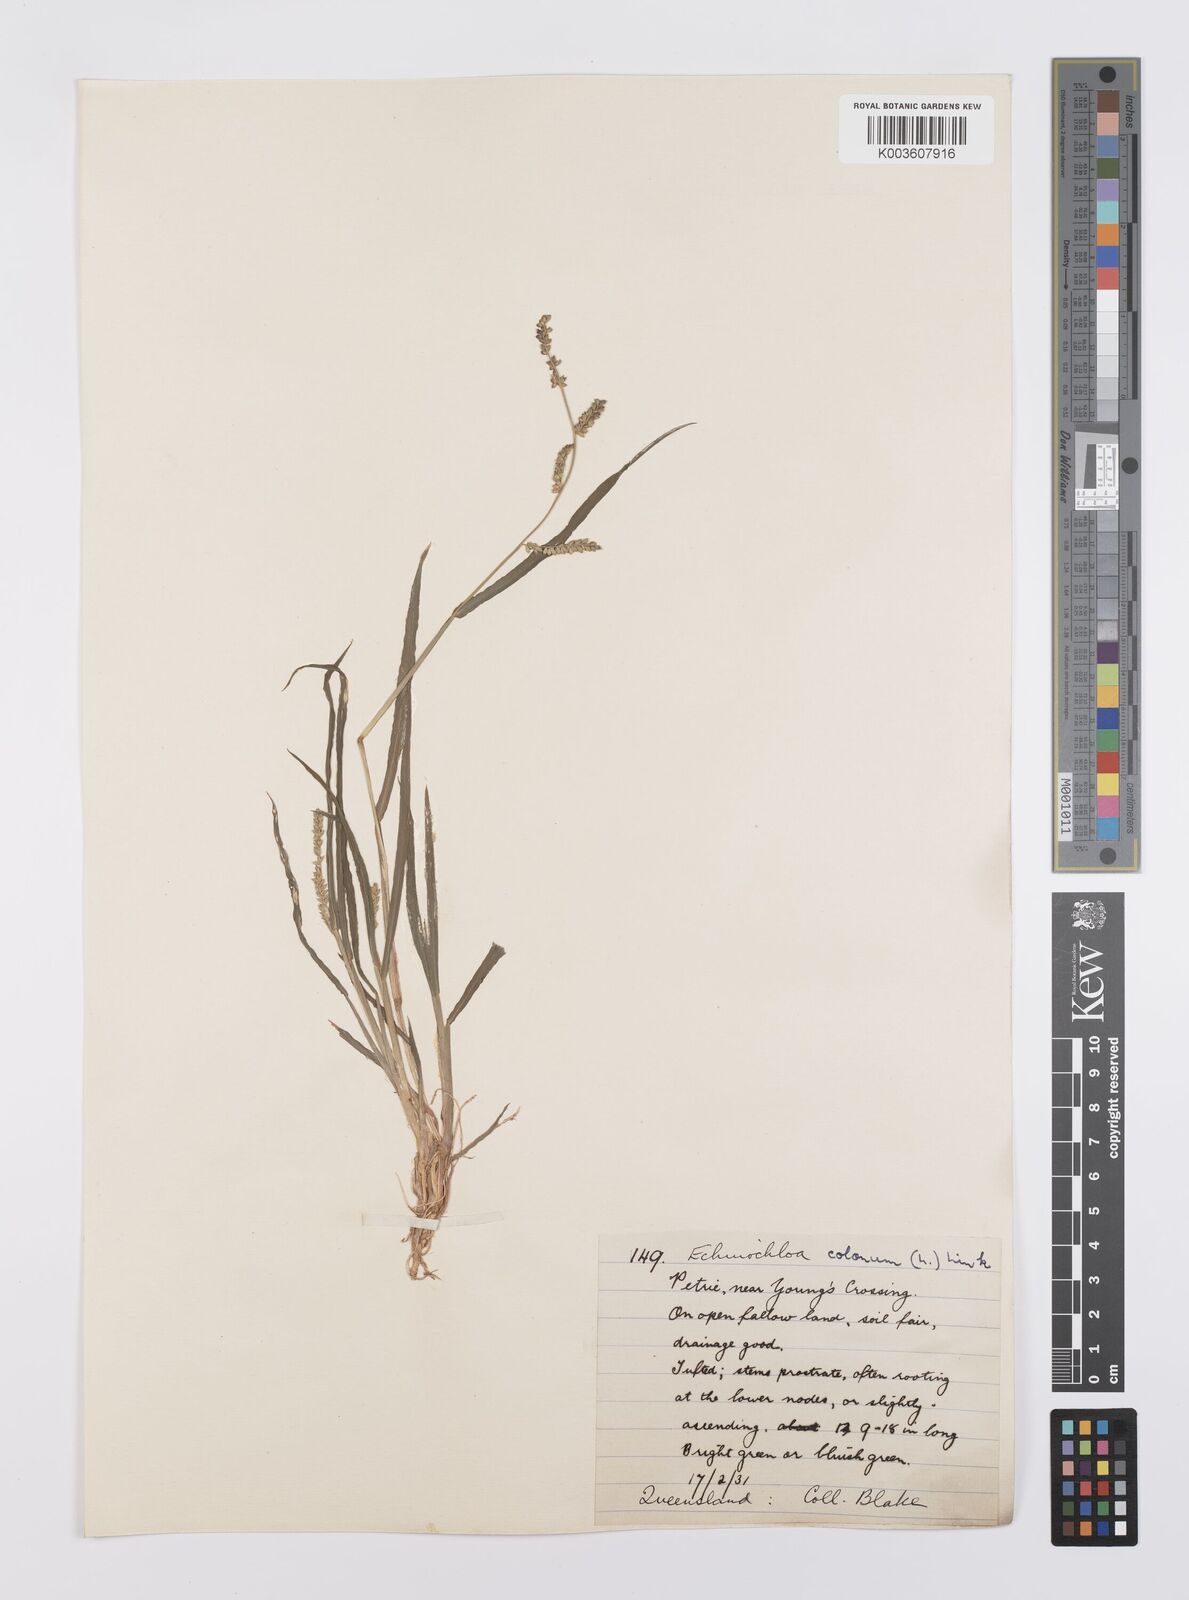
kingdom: Plantae
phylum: Tracheophyta
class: Liliopsida
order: Poales
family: Poaceae
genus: Echinochloa
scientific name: Echinochloa colonum
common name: Jungle rice
